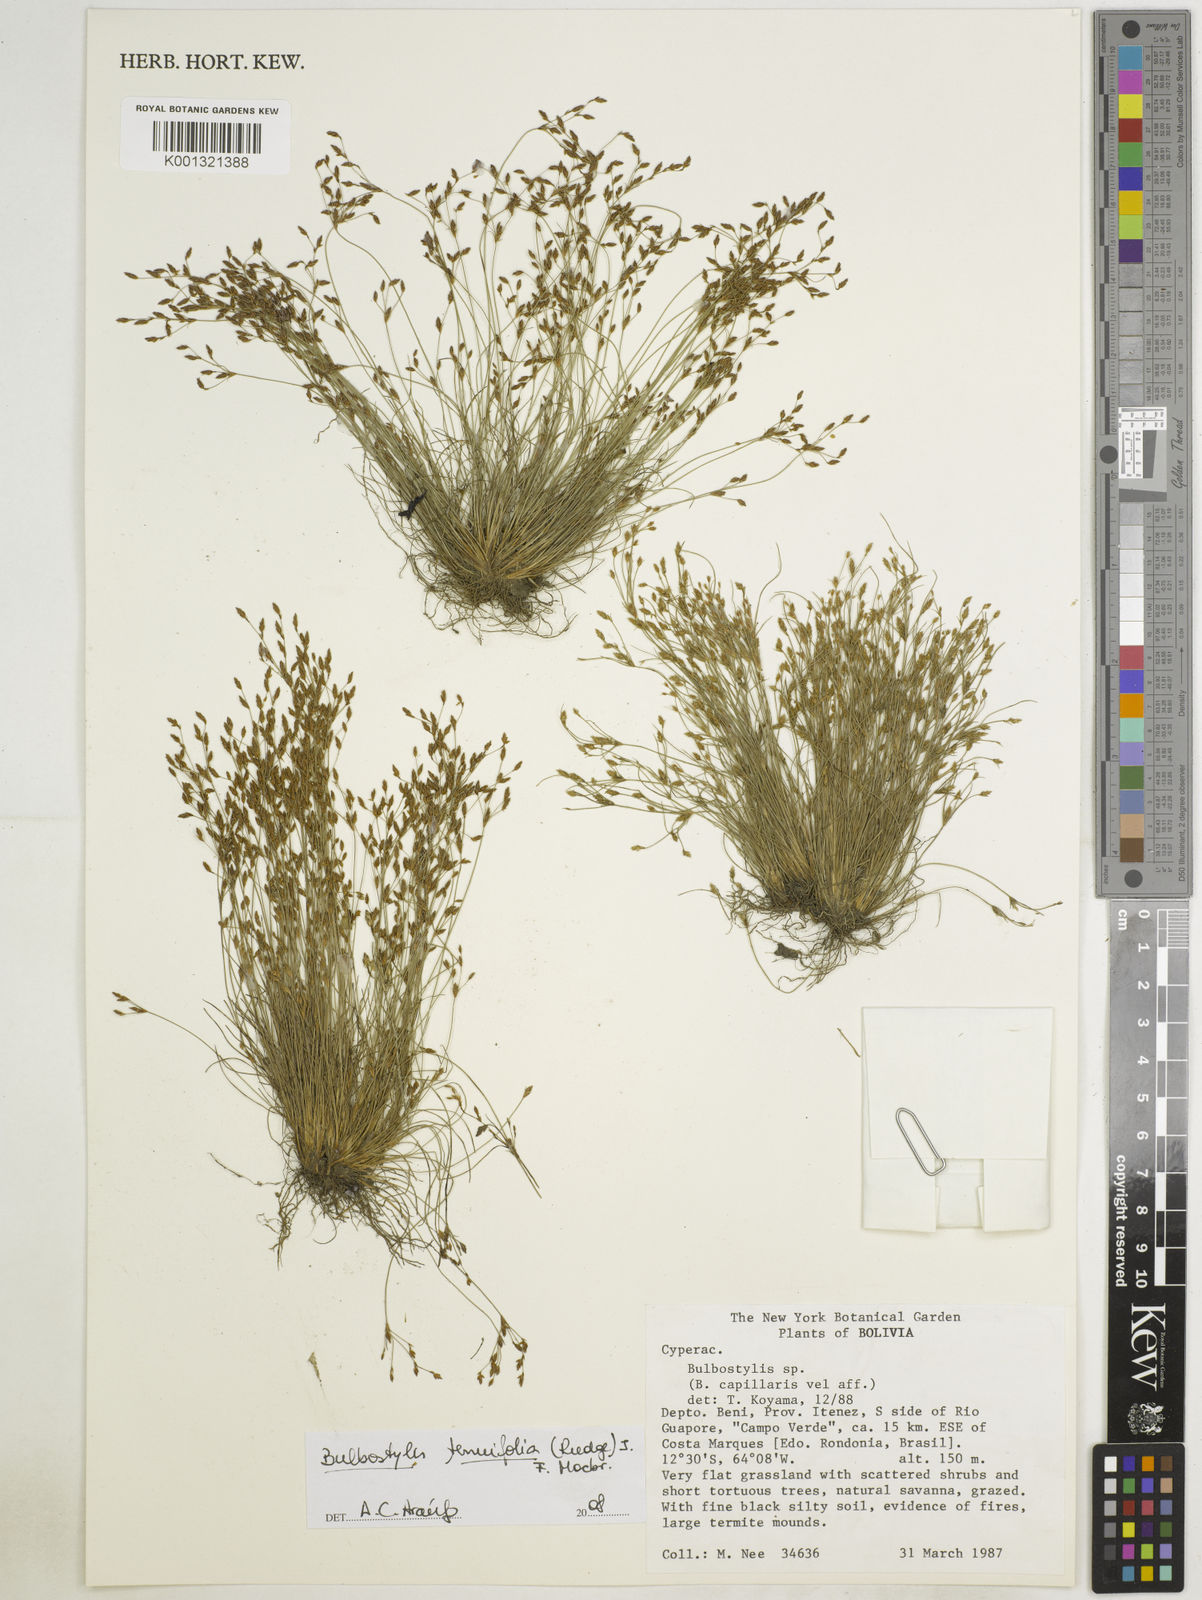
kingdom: Plantae
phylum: Tracheophyta
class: Liliopsida
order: Poales
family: Cyperaceae
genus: Bulbostylis
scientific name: Bulbostylis tenuifolia
